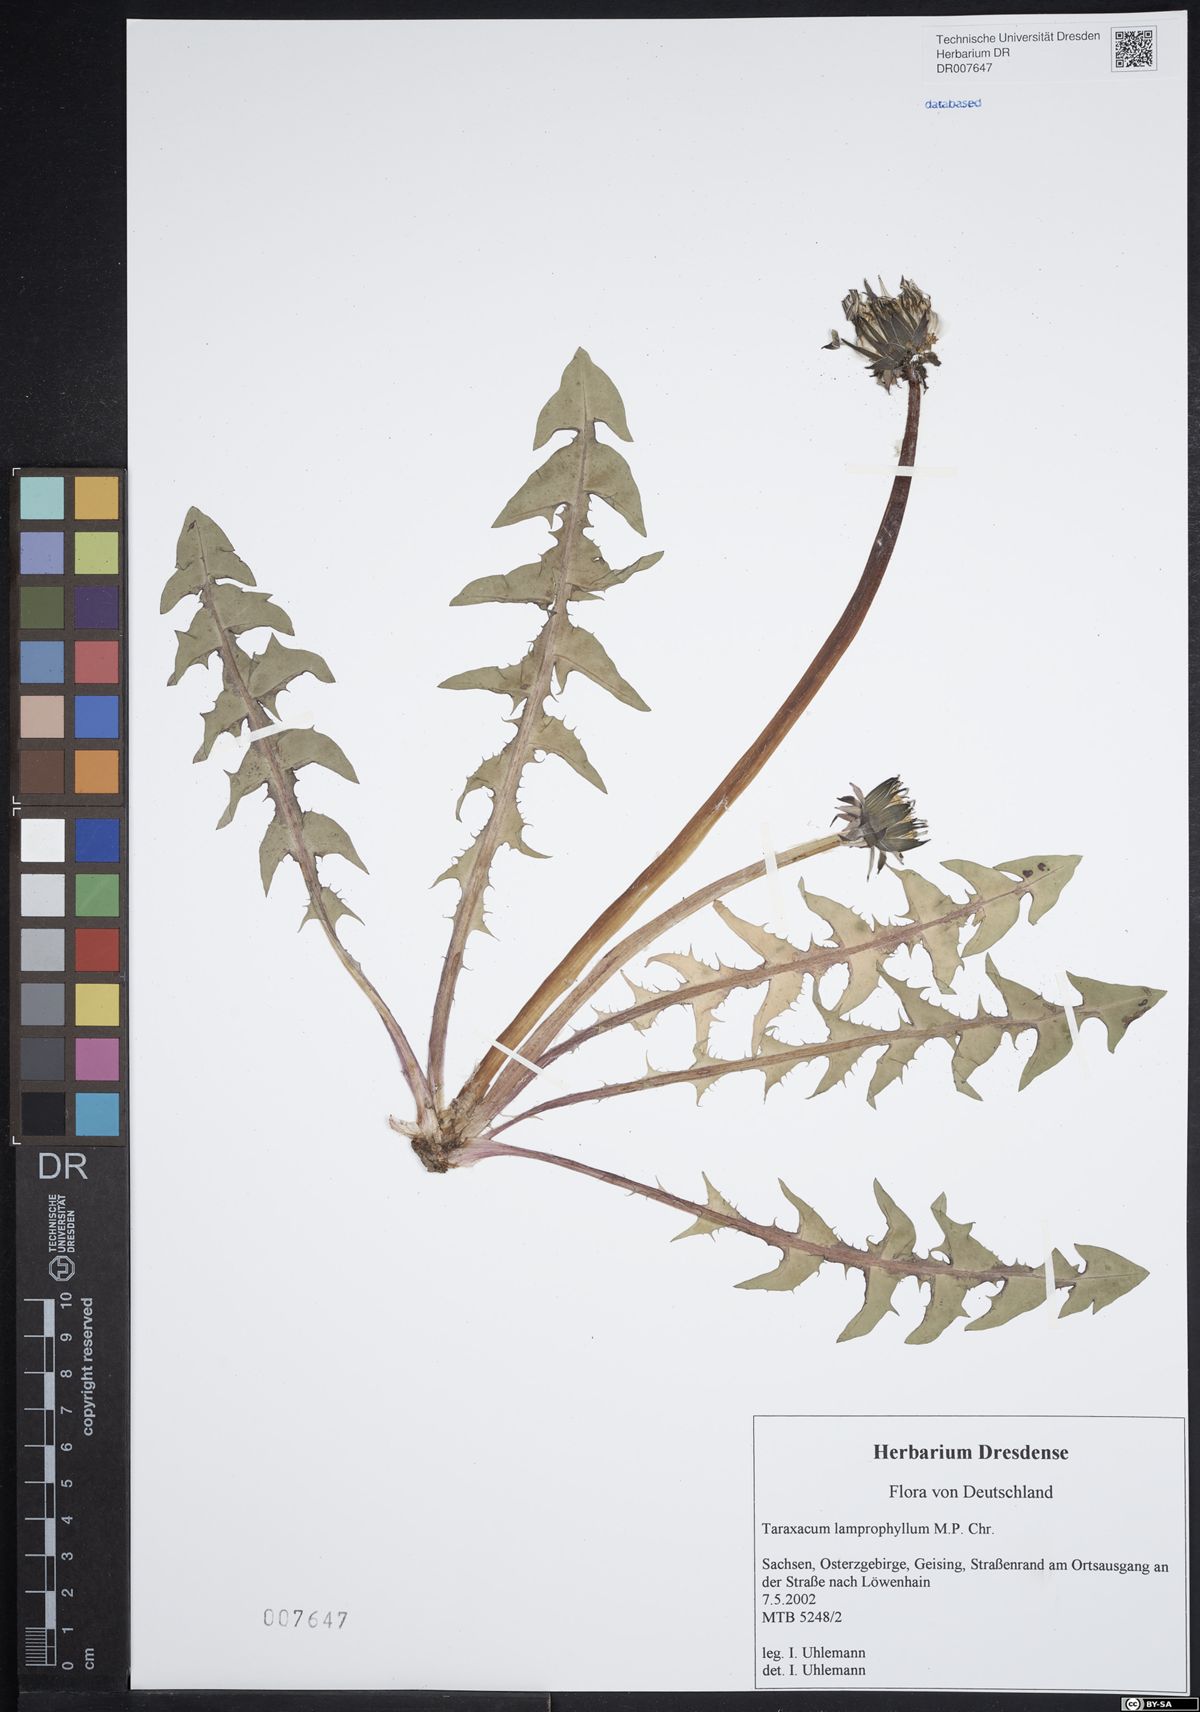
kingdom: Plantae
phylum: Tracheophyta
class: Magnoliopsida
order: Asterales
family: Asteraceae
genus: Taraxacum
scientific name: Taraxacum lamprophyllum
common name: Lustrous-leaved dandelion
